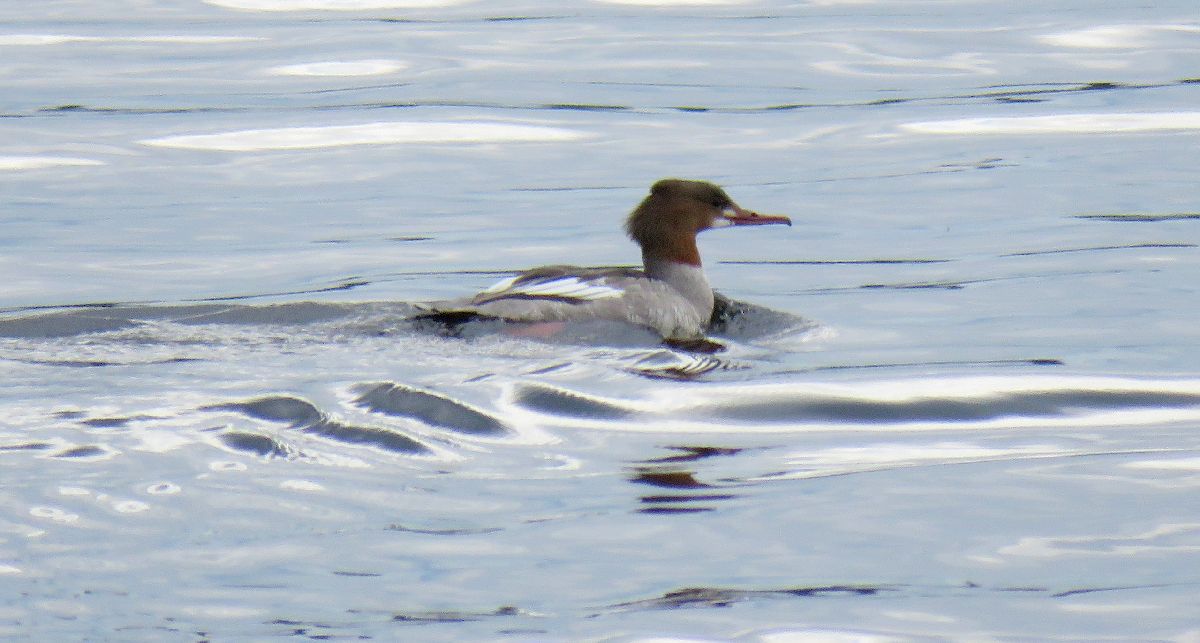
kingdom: Animalia
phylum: Chordata
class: Aves
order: Anseriformes
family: Anatidae
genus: Mergus
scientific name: Mergus merganser
